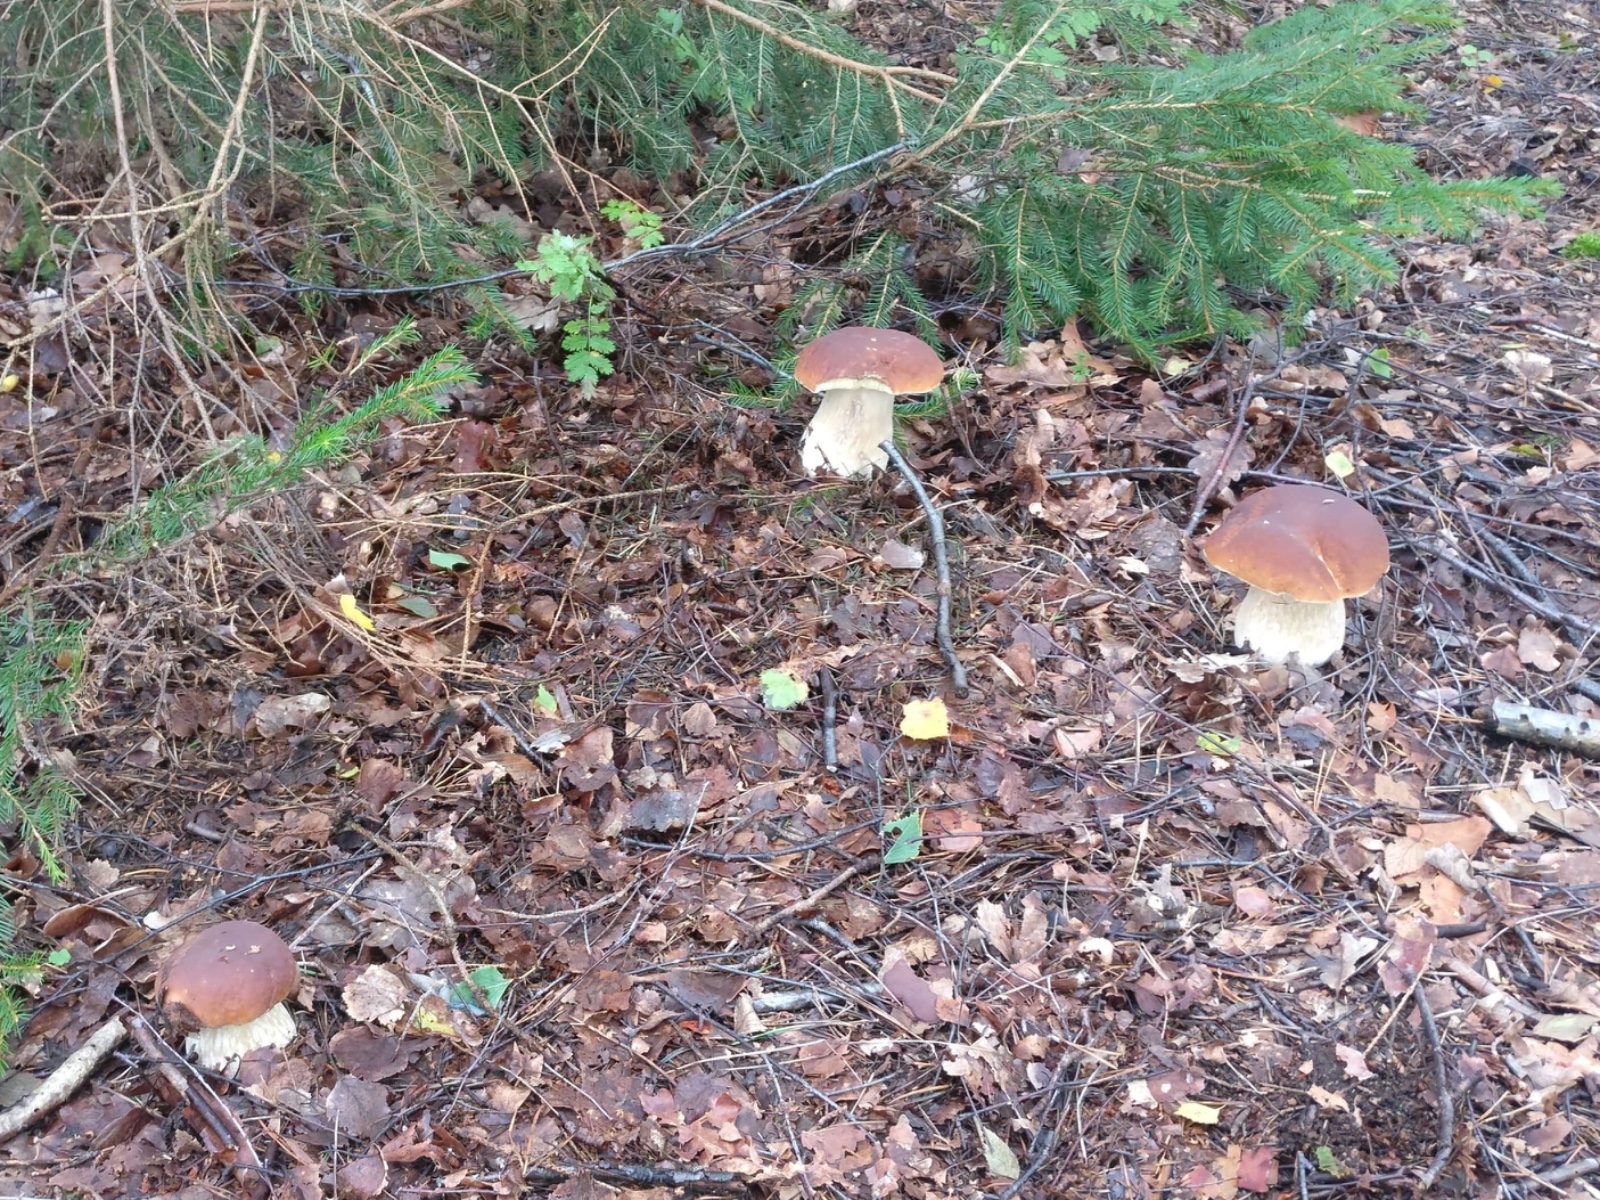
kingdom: Fungi
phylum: Basidiomycota
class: Agaricomycetes
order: Boletales
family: Boletaceae
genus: Boletus
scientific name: Boletus edulis
